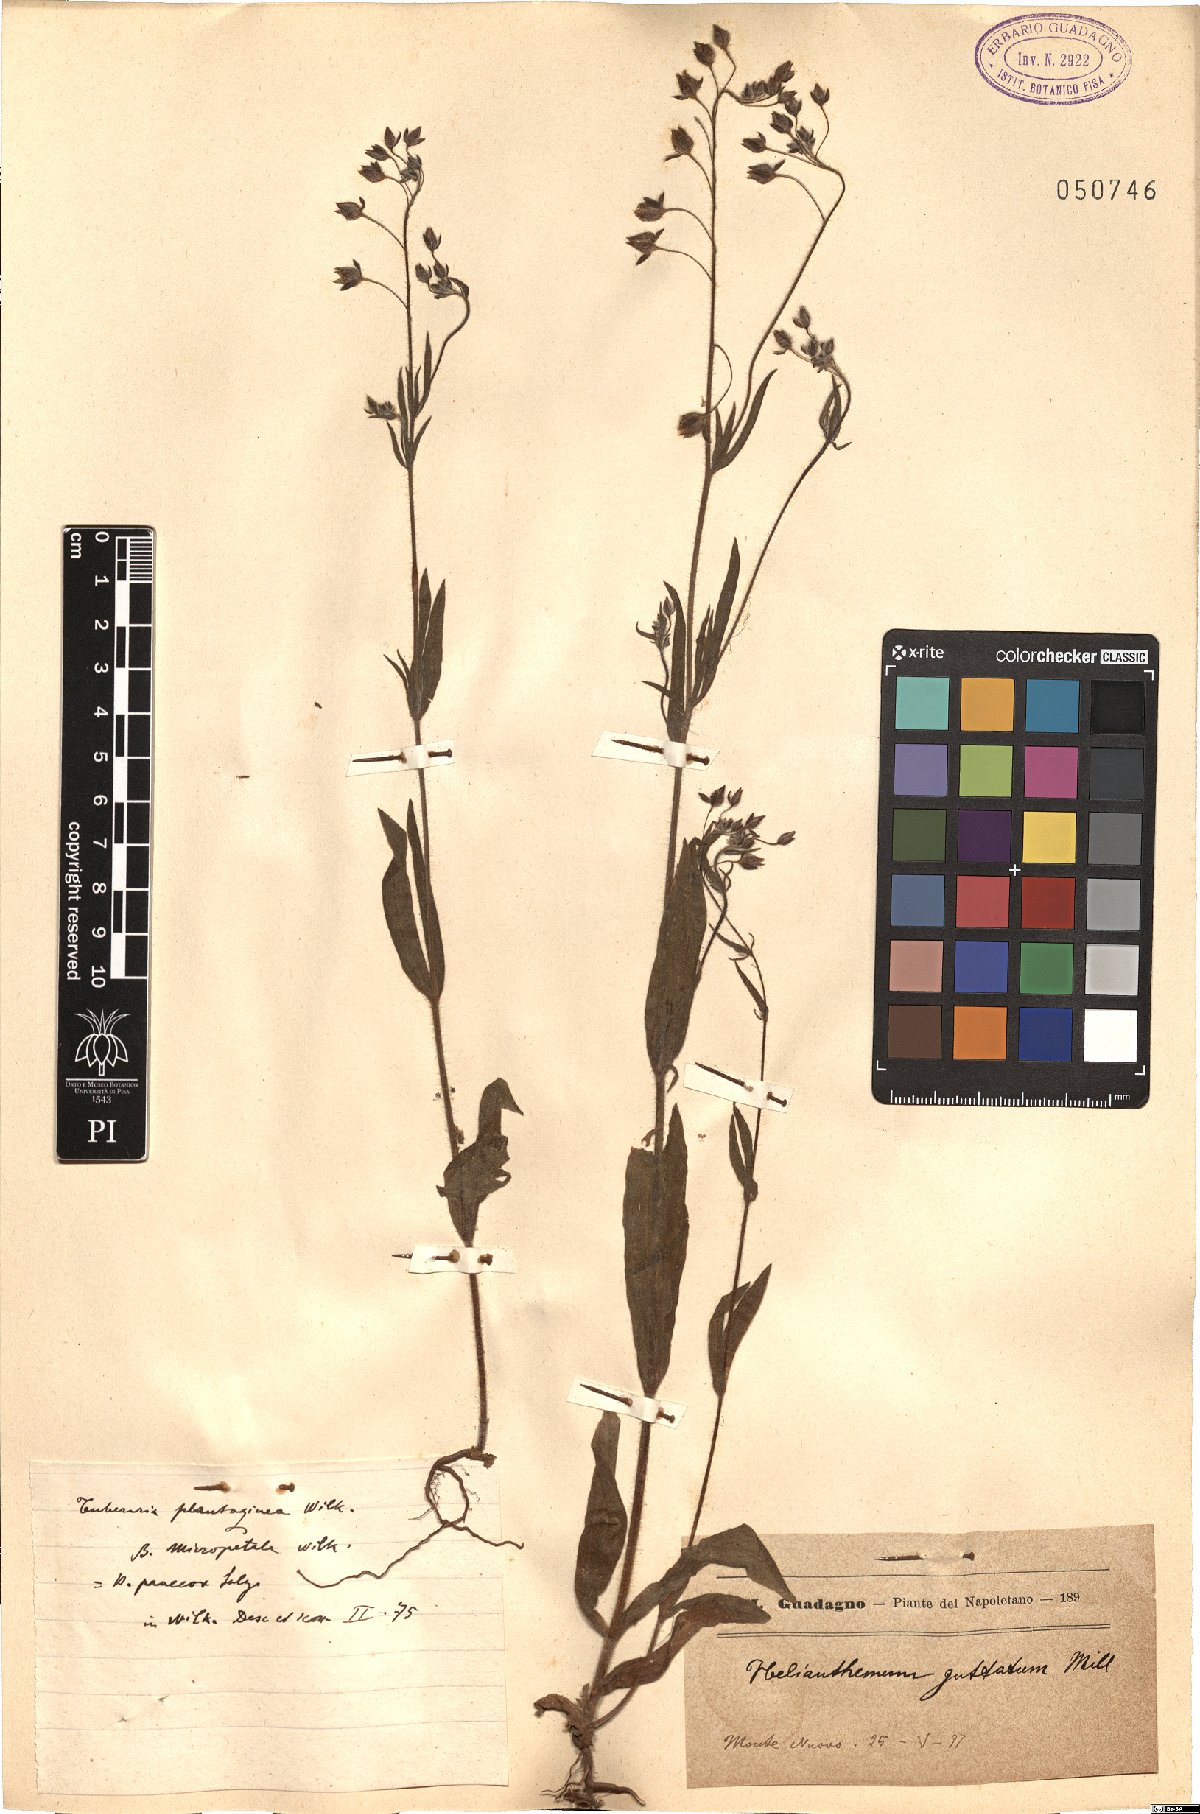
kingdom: Plantae
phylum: Tracheophyta
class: Magnoliopsida
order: Malvales
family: Cistaceae
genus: Tuberaria
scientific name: Tuberaria guttata
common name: Spotted rock-rose
